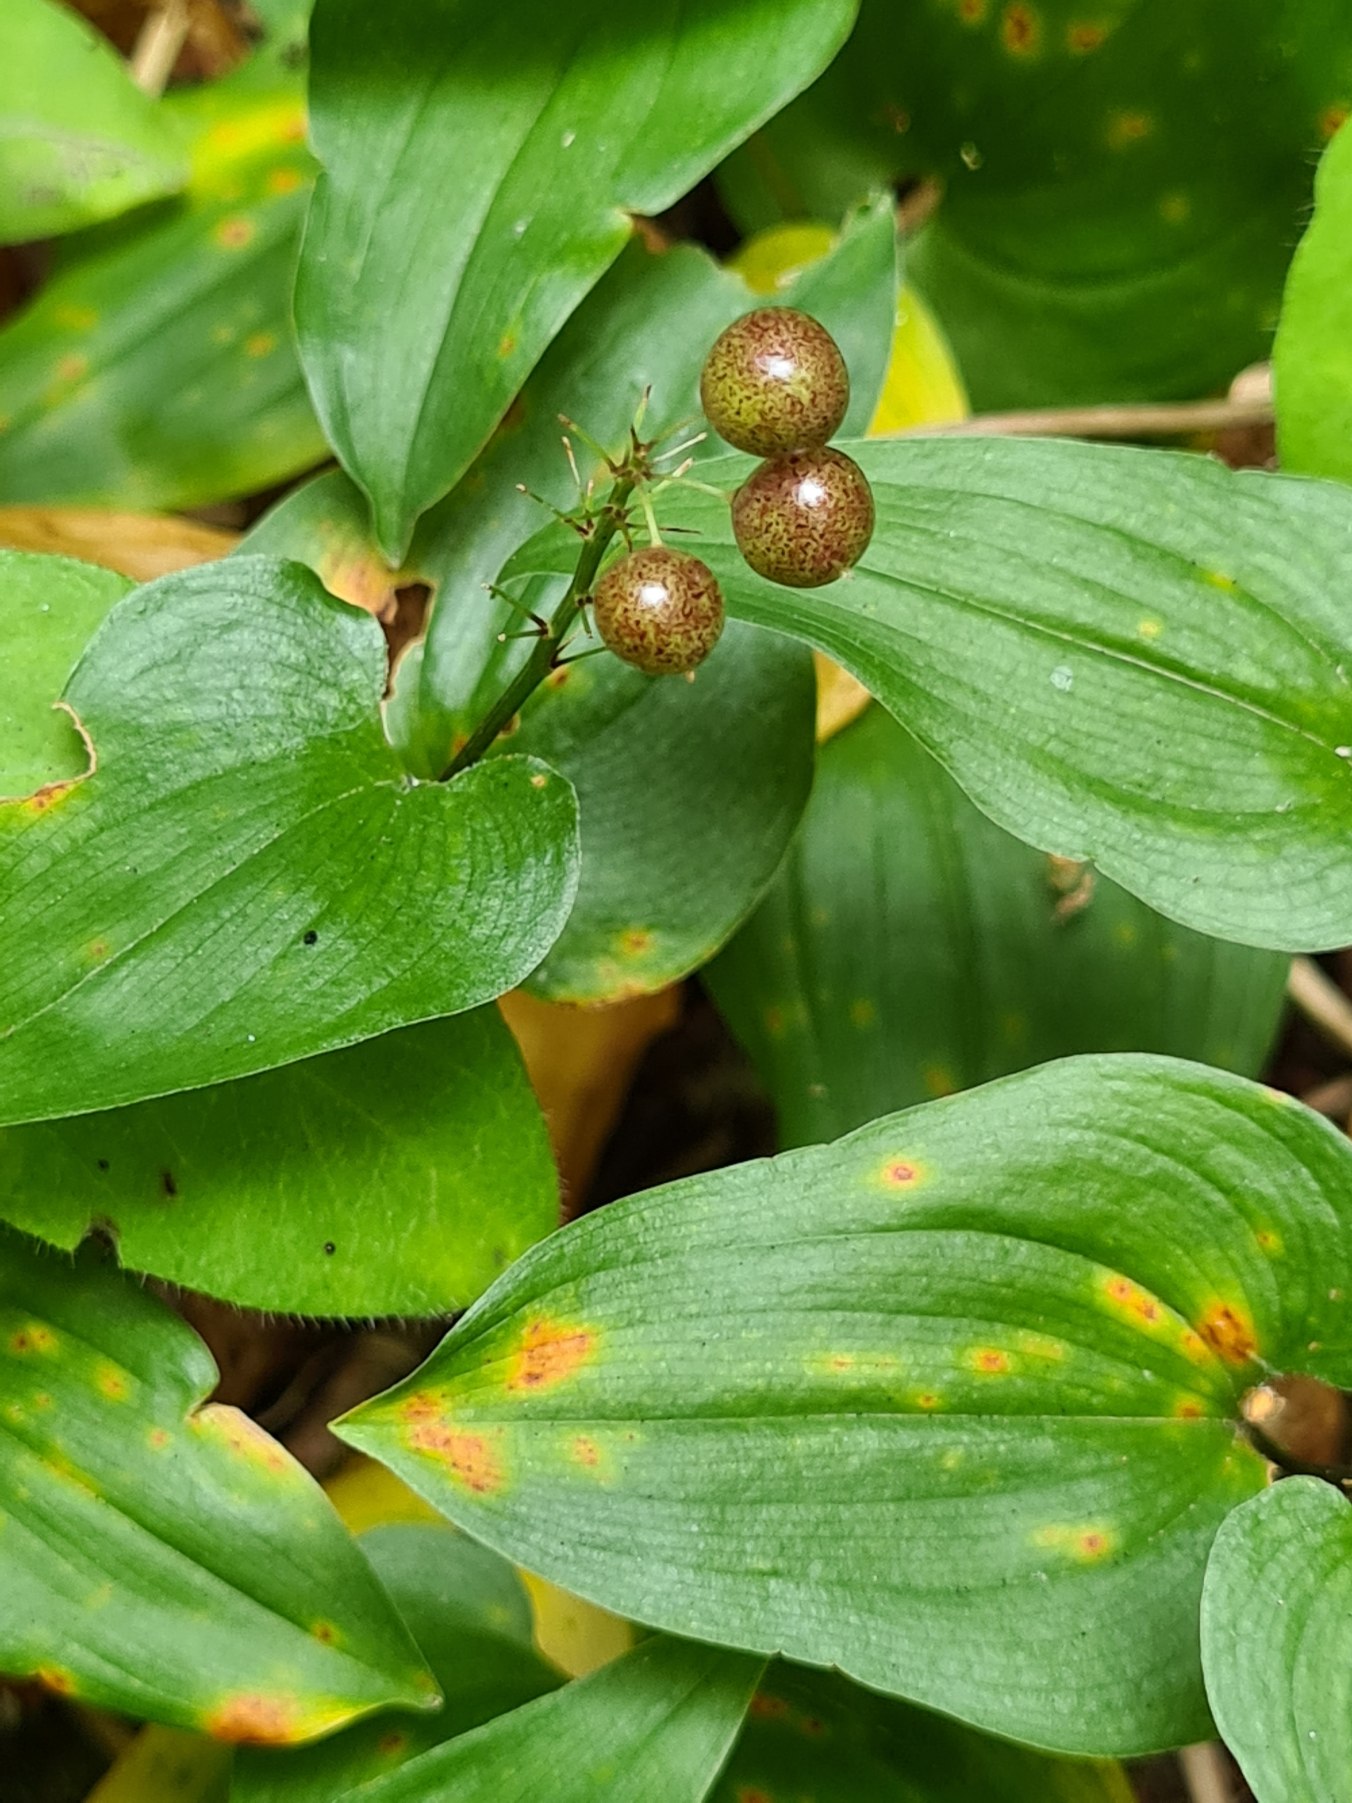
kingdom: Plantae
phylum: Tracheophyta
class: Liliopsida
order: Asparagales
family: Asparagaceae
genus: Maianthemum
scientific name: Maianthemum bifolium
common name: Majblomst
